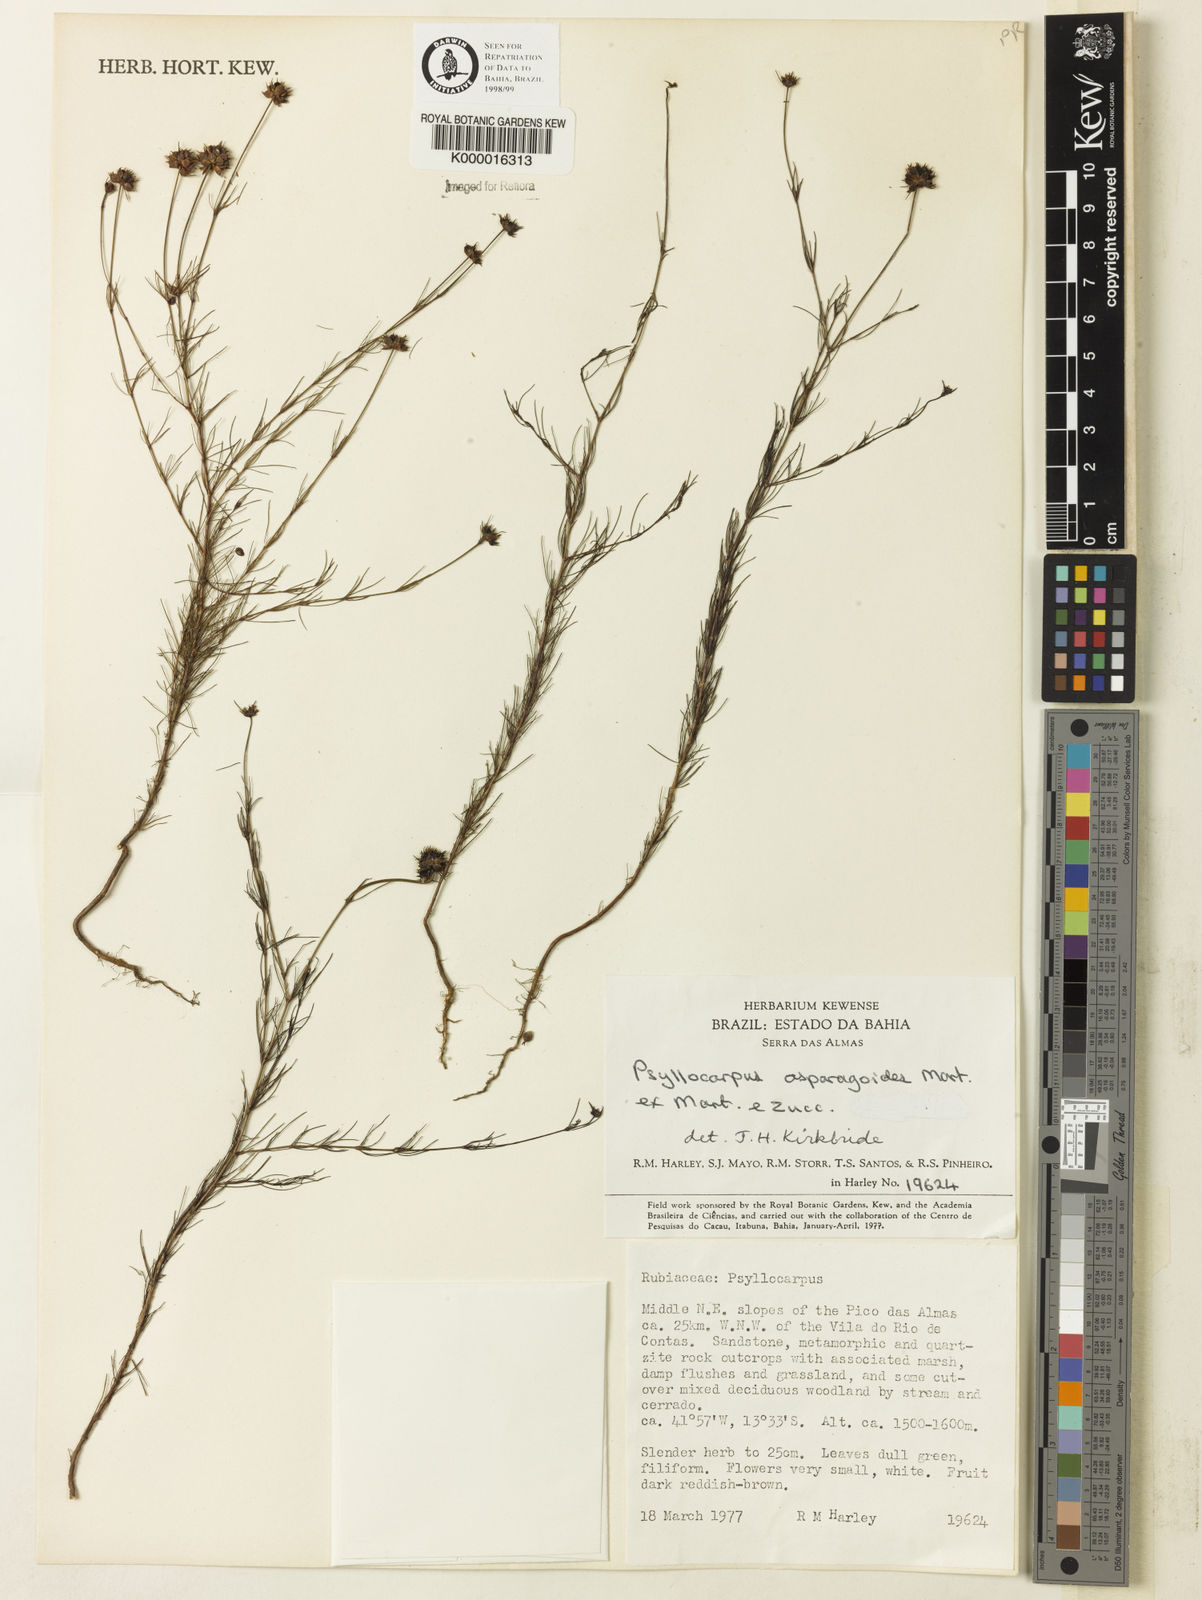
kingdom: Plantae
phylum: Tracheophyta
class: Magnoliopsida
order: Gentianales
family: Rubiaceae
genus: Psyllocarpus
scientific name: Psyllocarpus asparagoides
